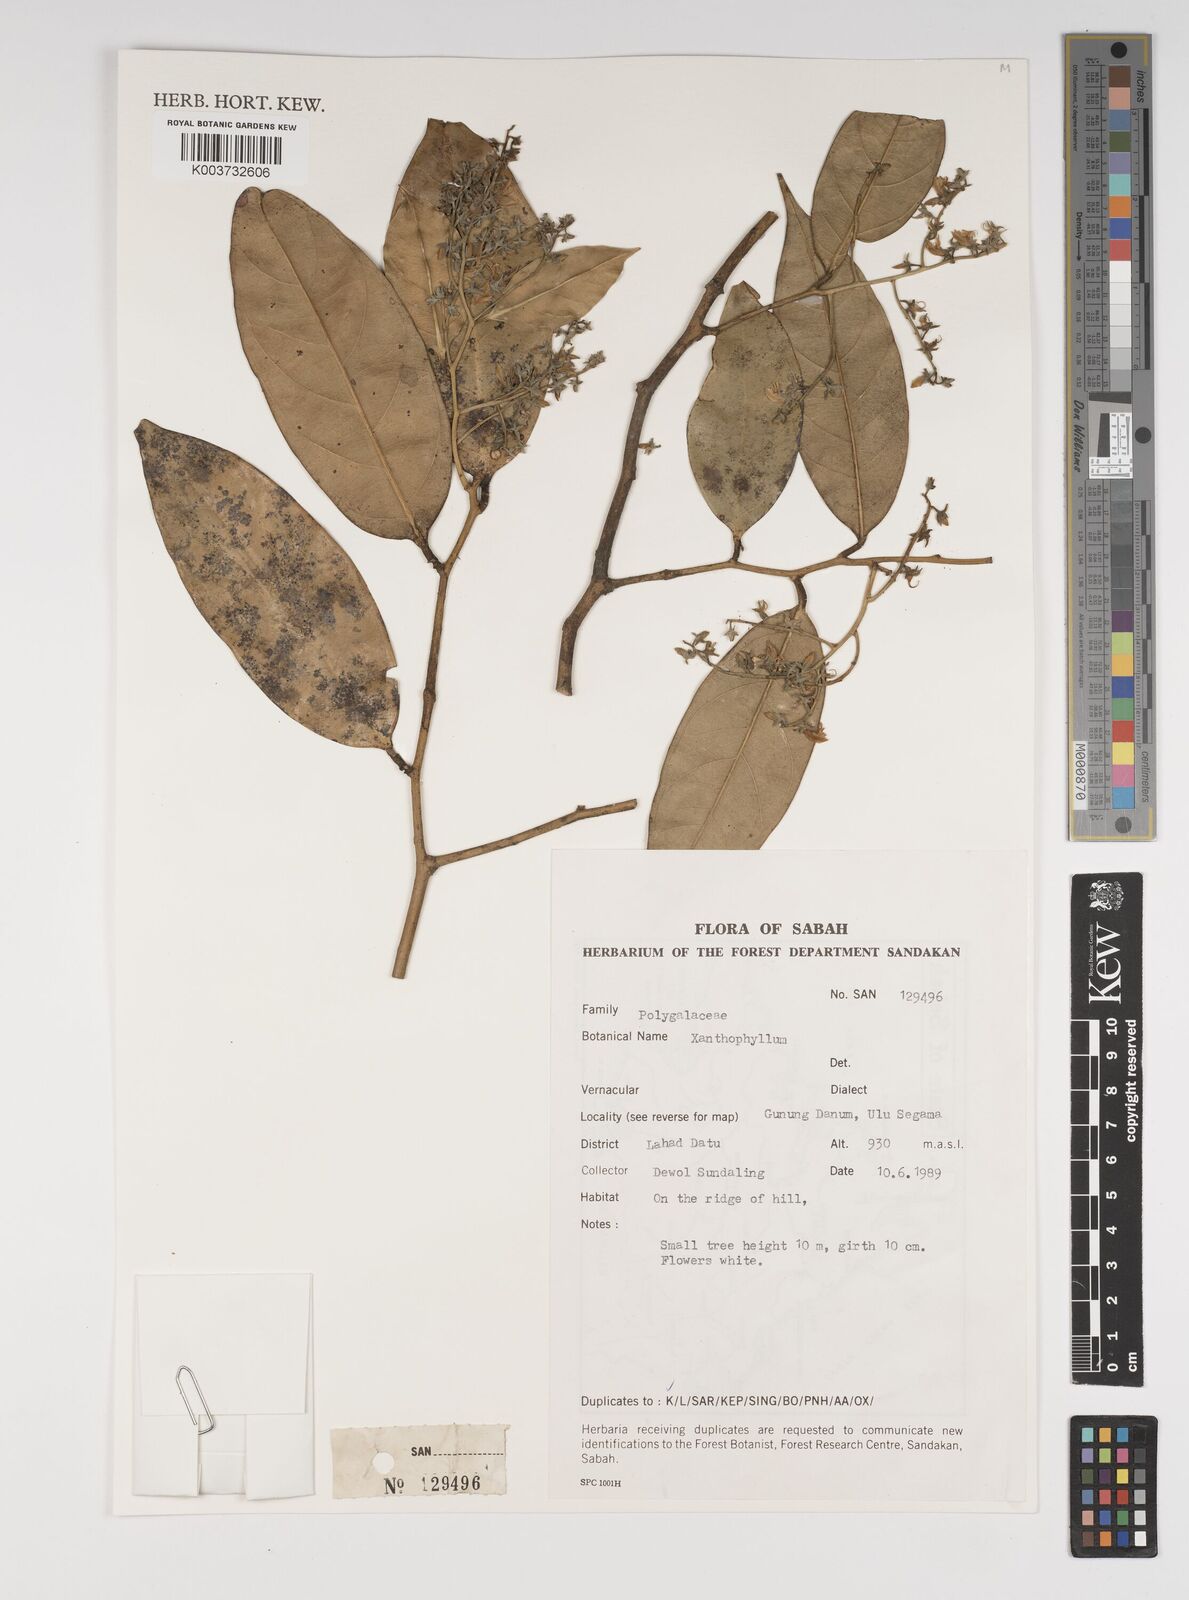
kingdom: Plantae
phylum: Tracheophyta
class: Magnoliopsida
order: Fabales
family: Polygalaceae
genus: Xanthophyllum
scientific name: Xanthophyllum
